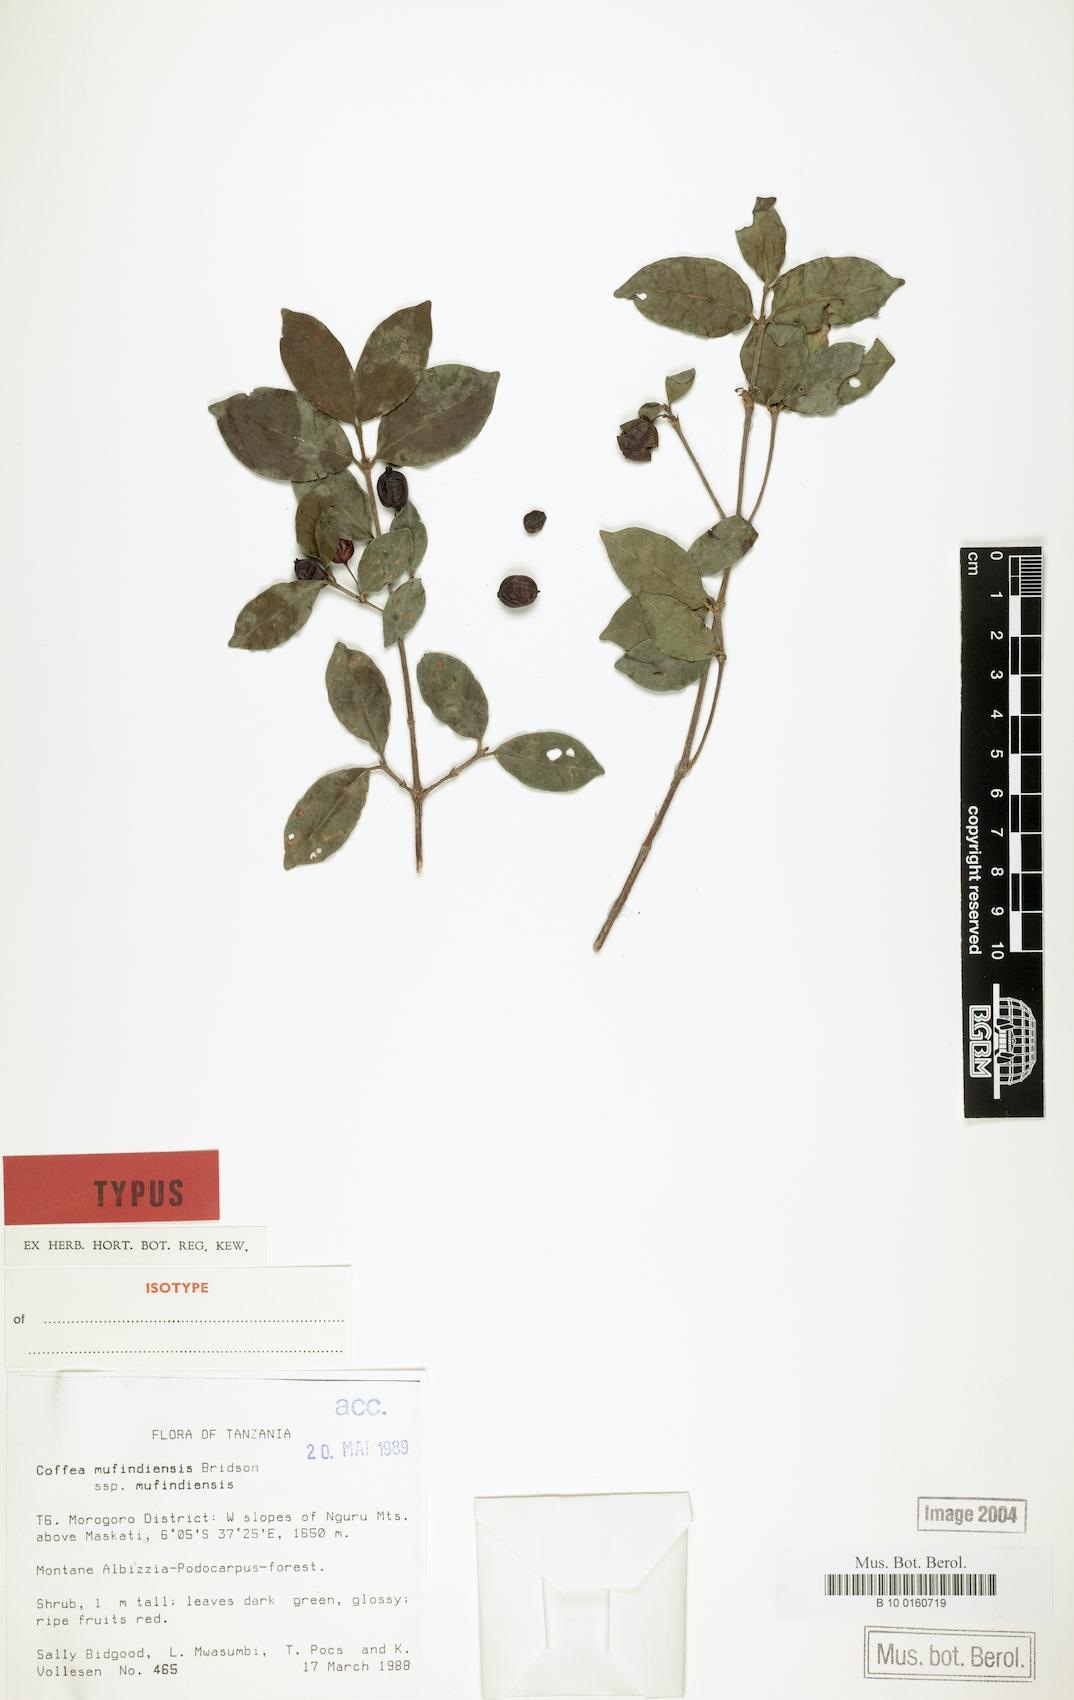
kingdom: Plantae
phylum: Tracheophyta
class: Magnoliopsida
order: Gentianales
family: Rubiaceae
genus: Coffea
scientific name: Coffea mufindiensis
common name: Wild coffee
